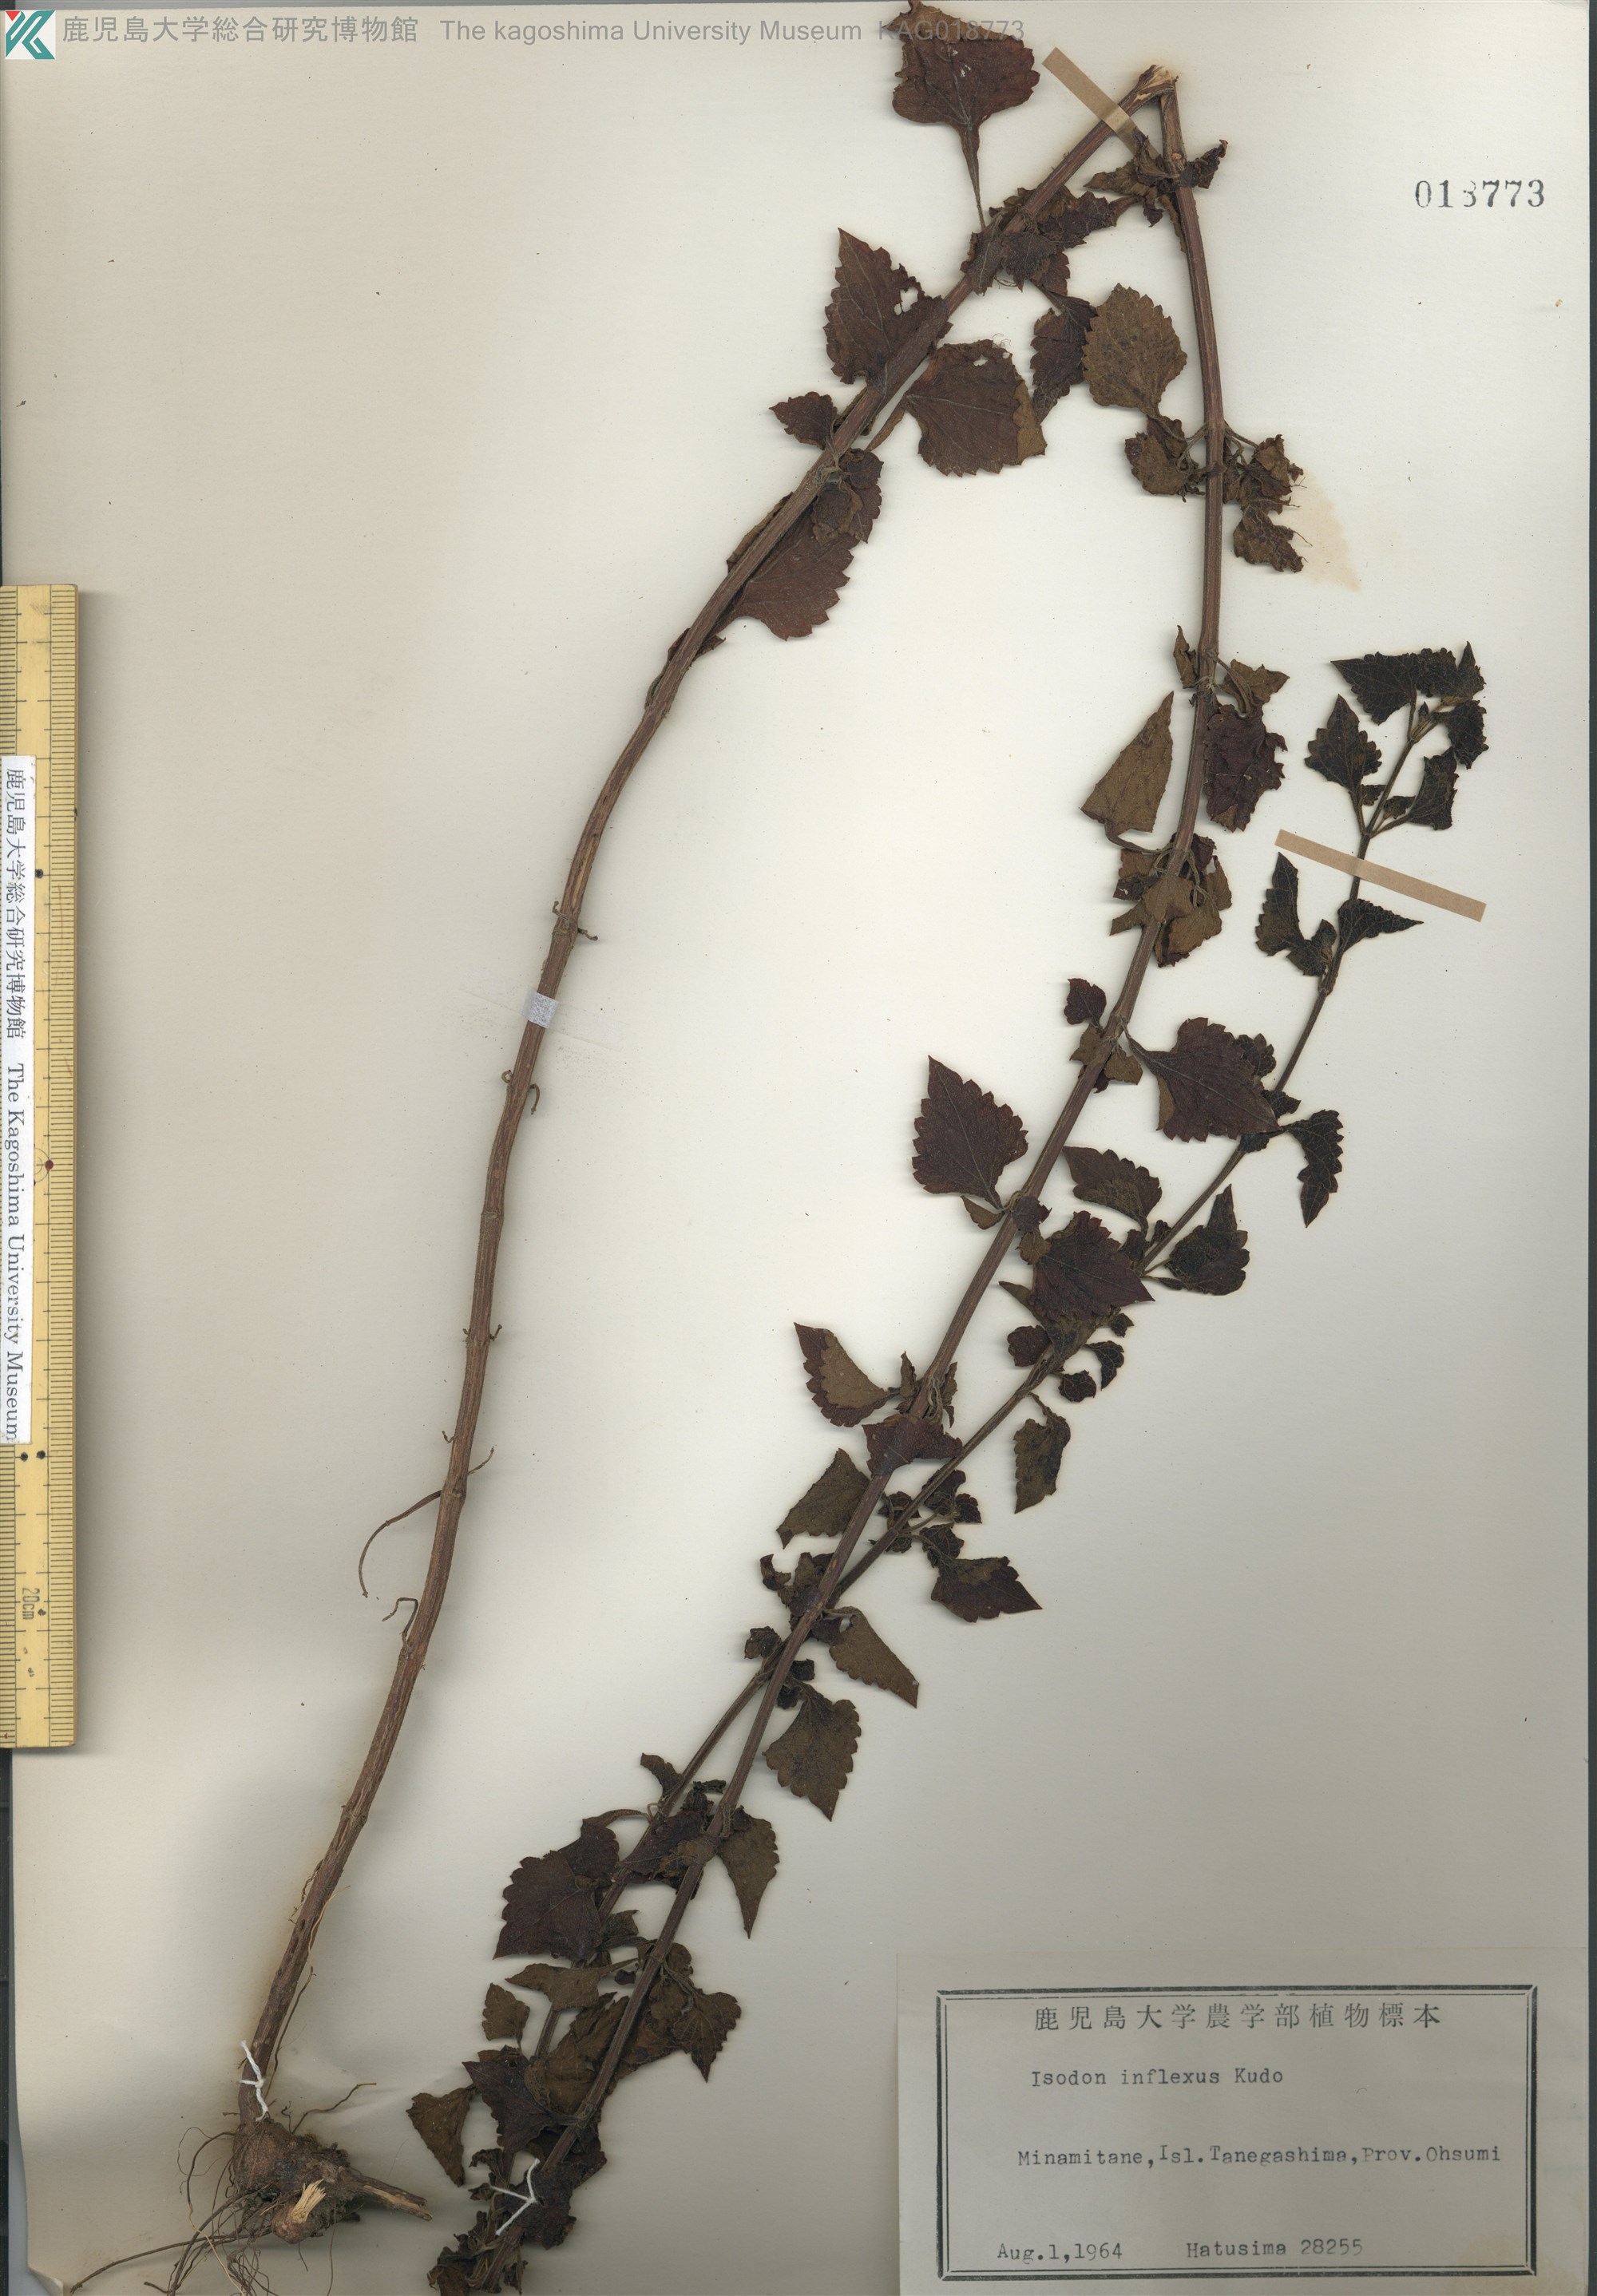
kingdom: Plantae
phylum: Tracheophyta
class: Magnoliopsida
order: Lamiales
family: Lamiaceae
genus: Isodon
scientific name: Isodon inflexus
